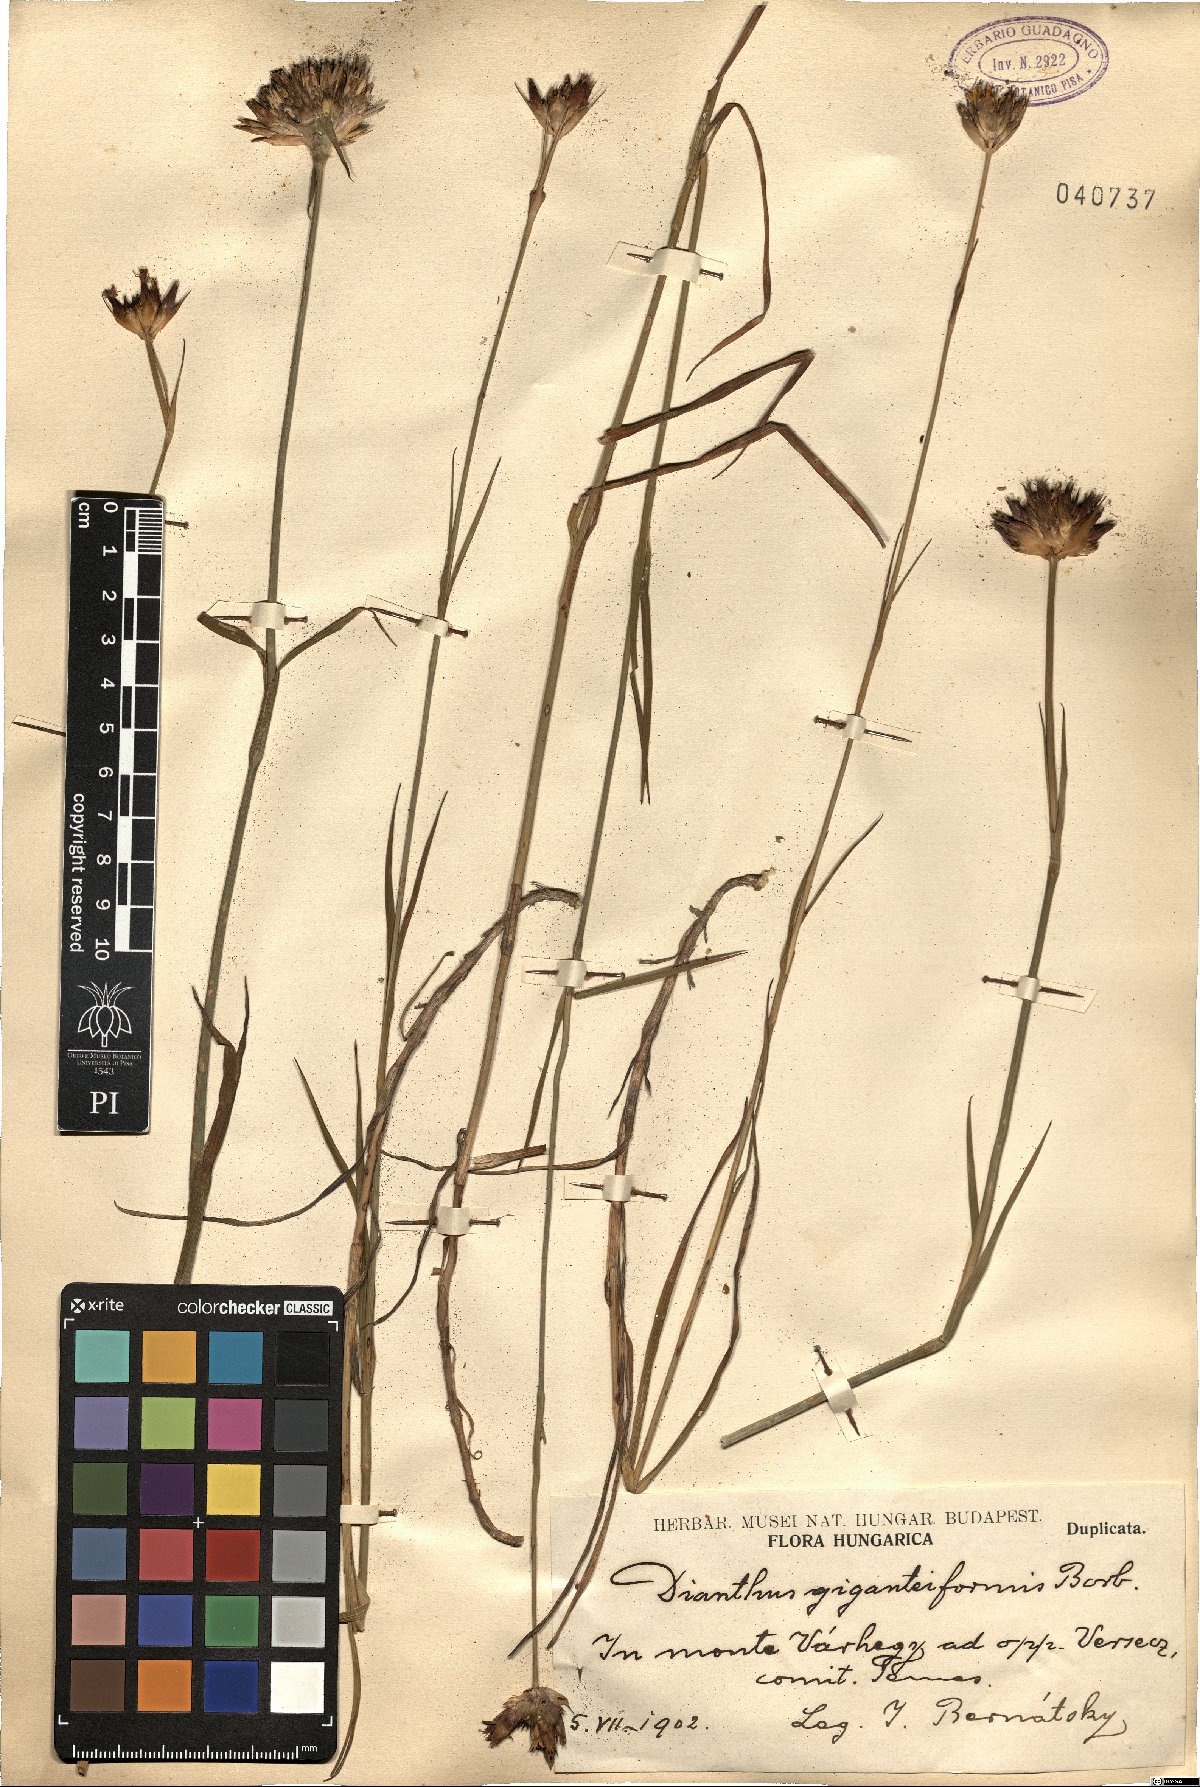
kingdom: Plantae
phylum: Tracheophyta
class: Magnoliopsida
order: Caryophyllales
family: Caryophyllaceae
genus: Dianthus
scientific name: Dianthus giganteiformis
